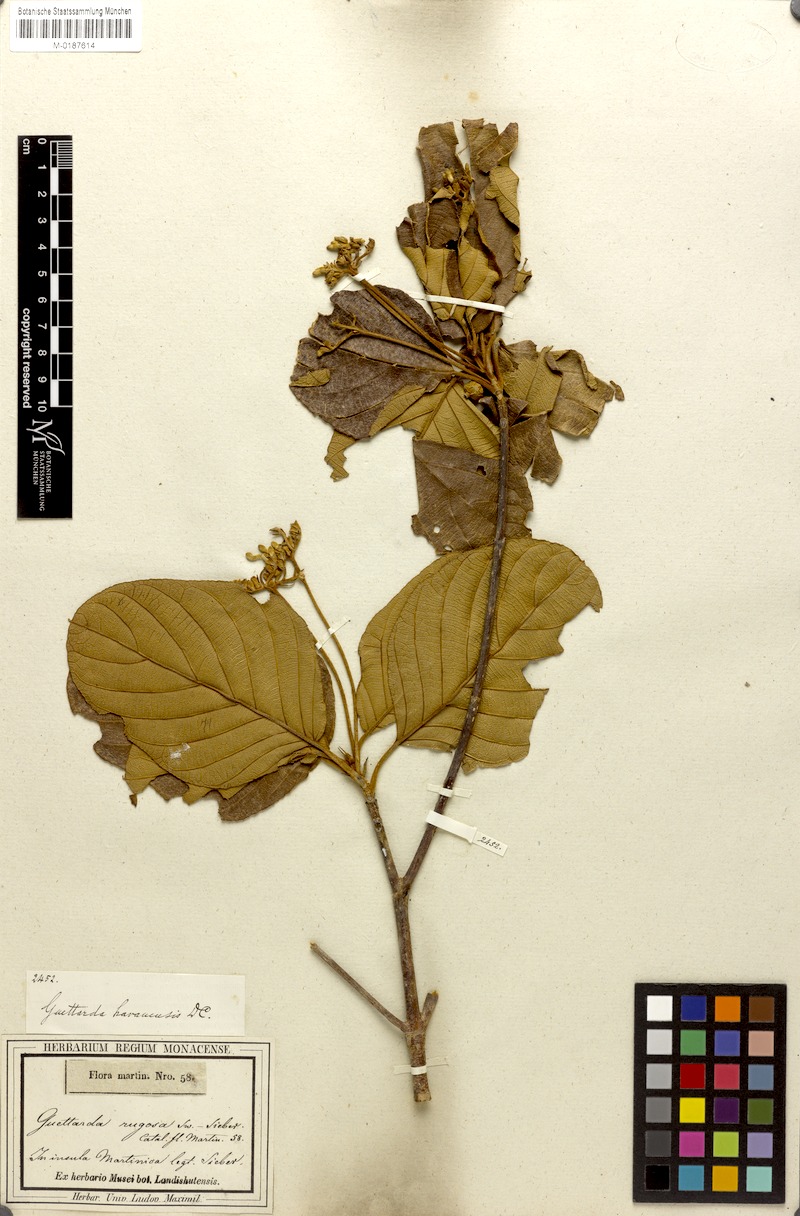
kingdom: Plantae
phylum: Tracheophyta
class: Magnoliopsida
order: Gentianales
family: Rubiaceae
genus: Guettarda
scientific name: Guettarda scabra
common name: Pigeon bay
